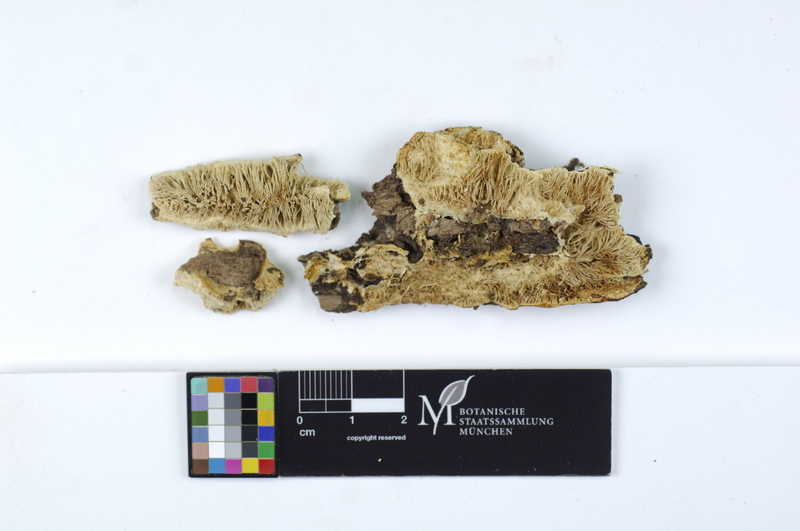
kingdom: Fungi
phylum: Basidiomycota
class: Agaricomycetes
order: Russulales
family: Hericiaceae
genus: Dentipellis
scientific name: Dentipellis fragilis
